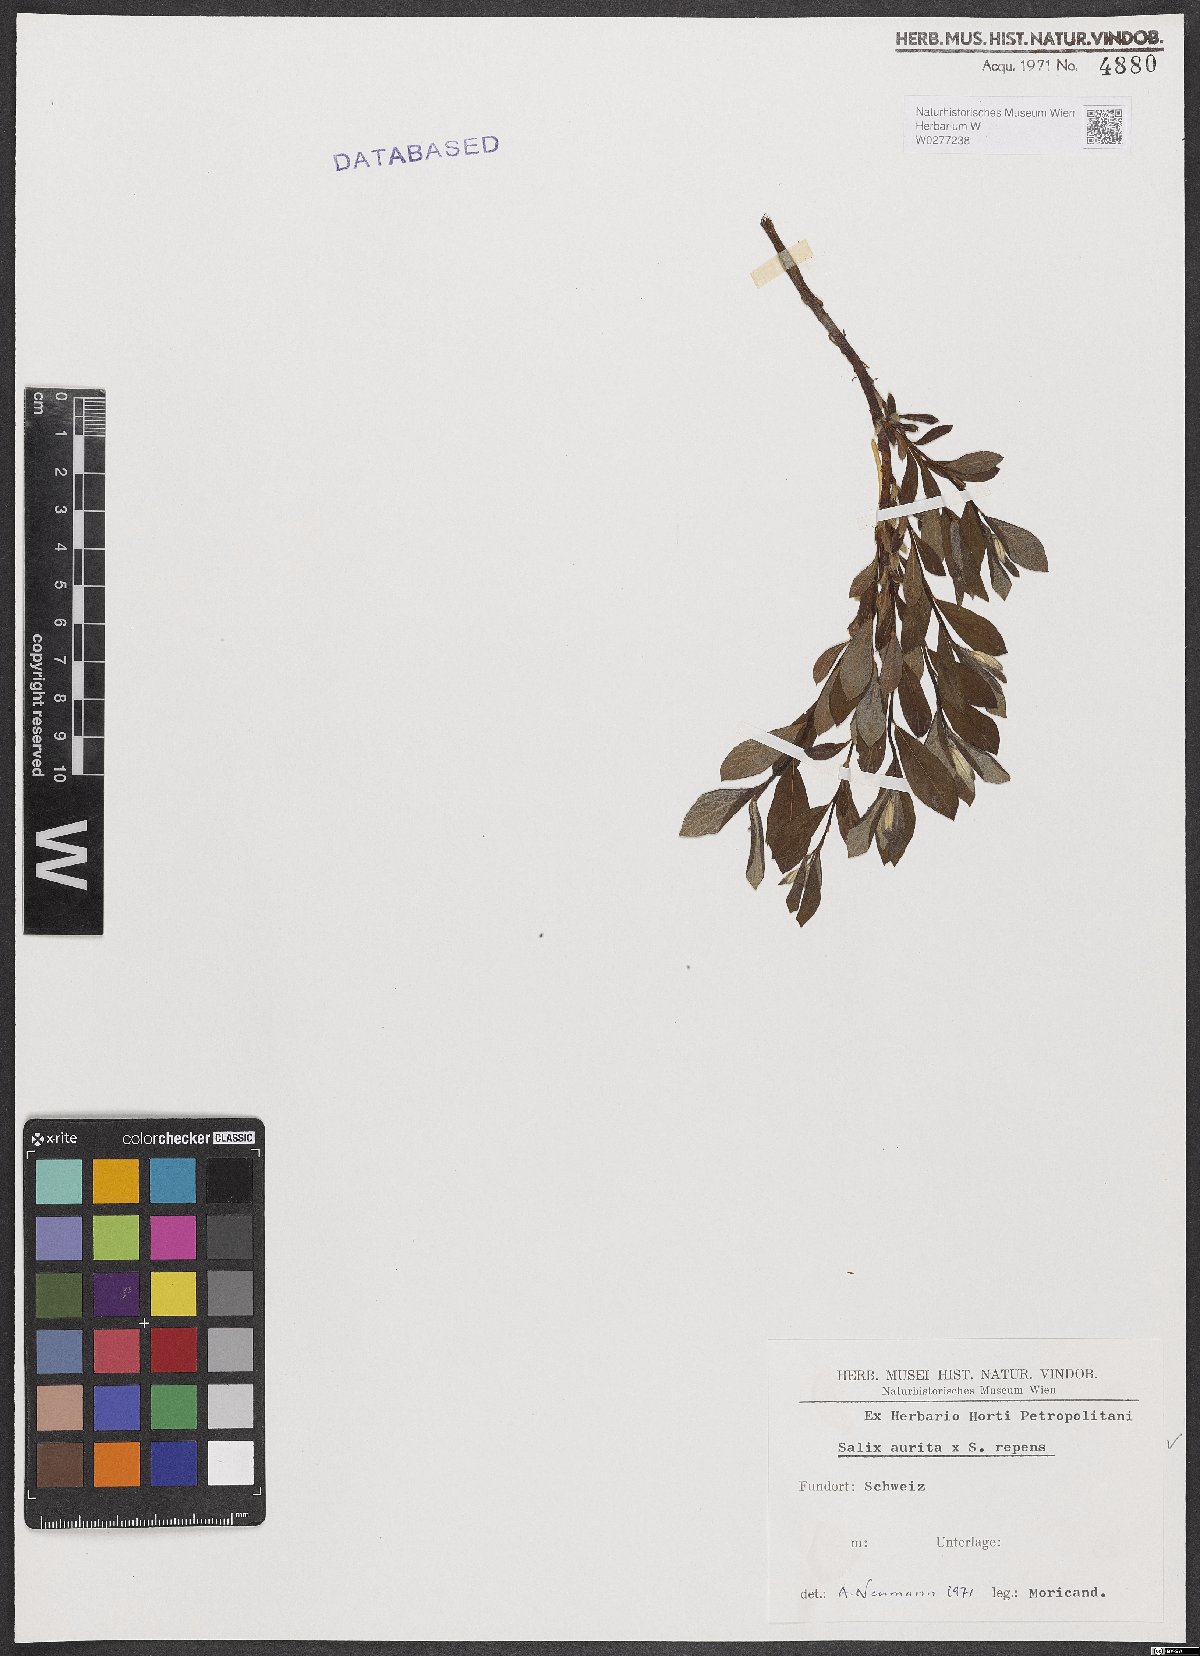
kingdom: Plantae
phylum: Tracheophyta
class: Magnoliopsida
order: Malpighiales
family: Salicaceae
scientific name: Salicaceae
